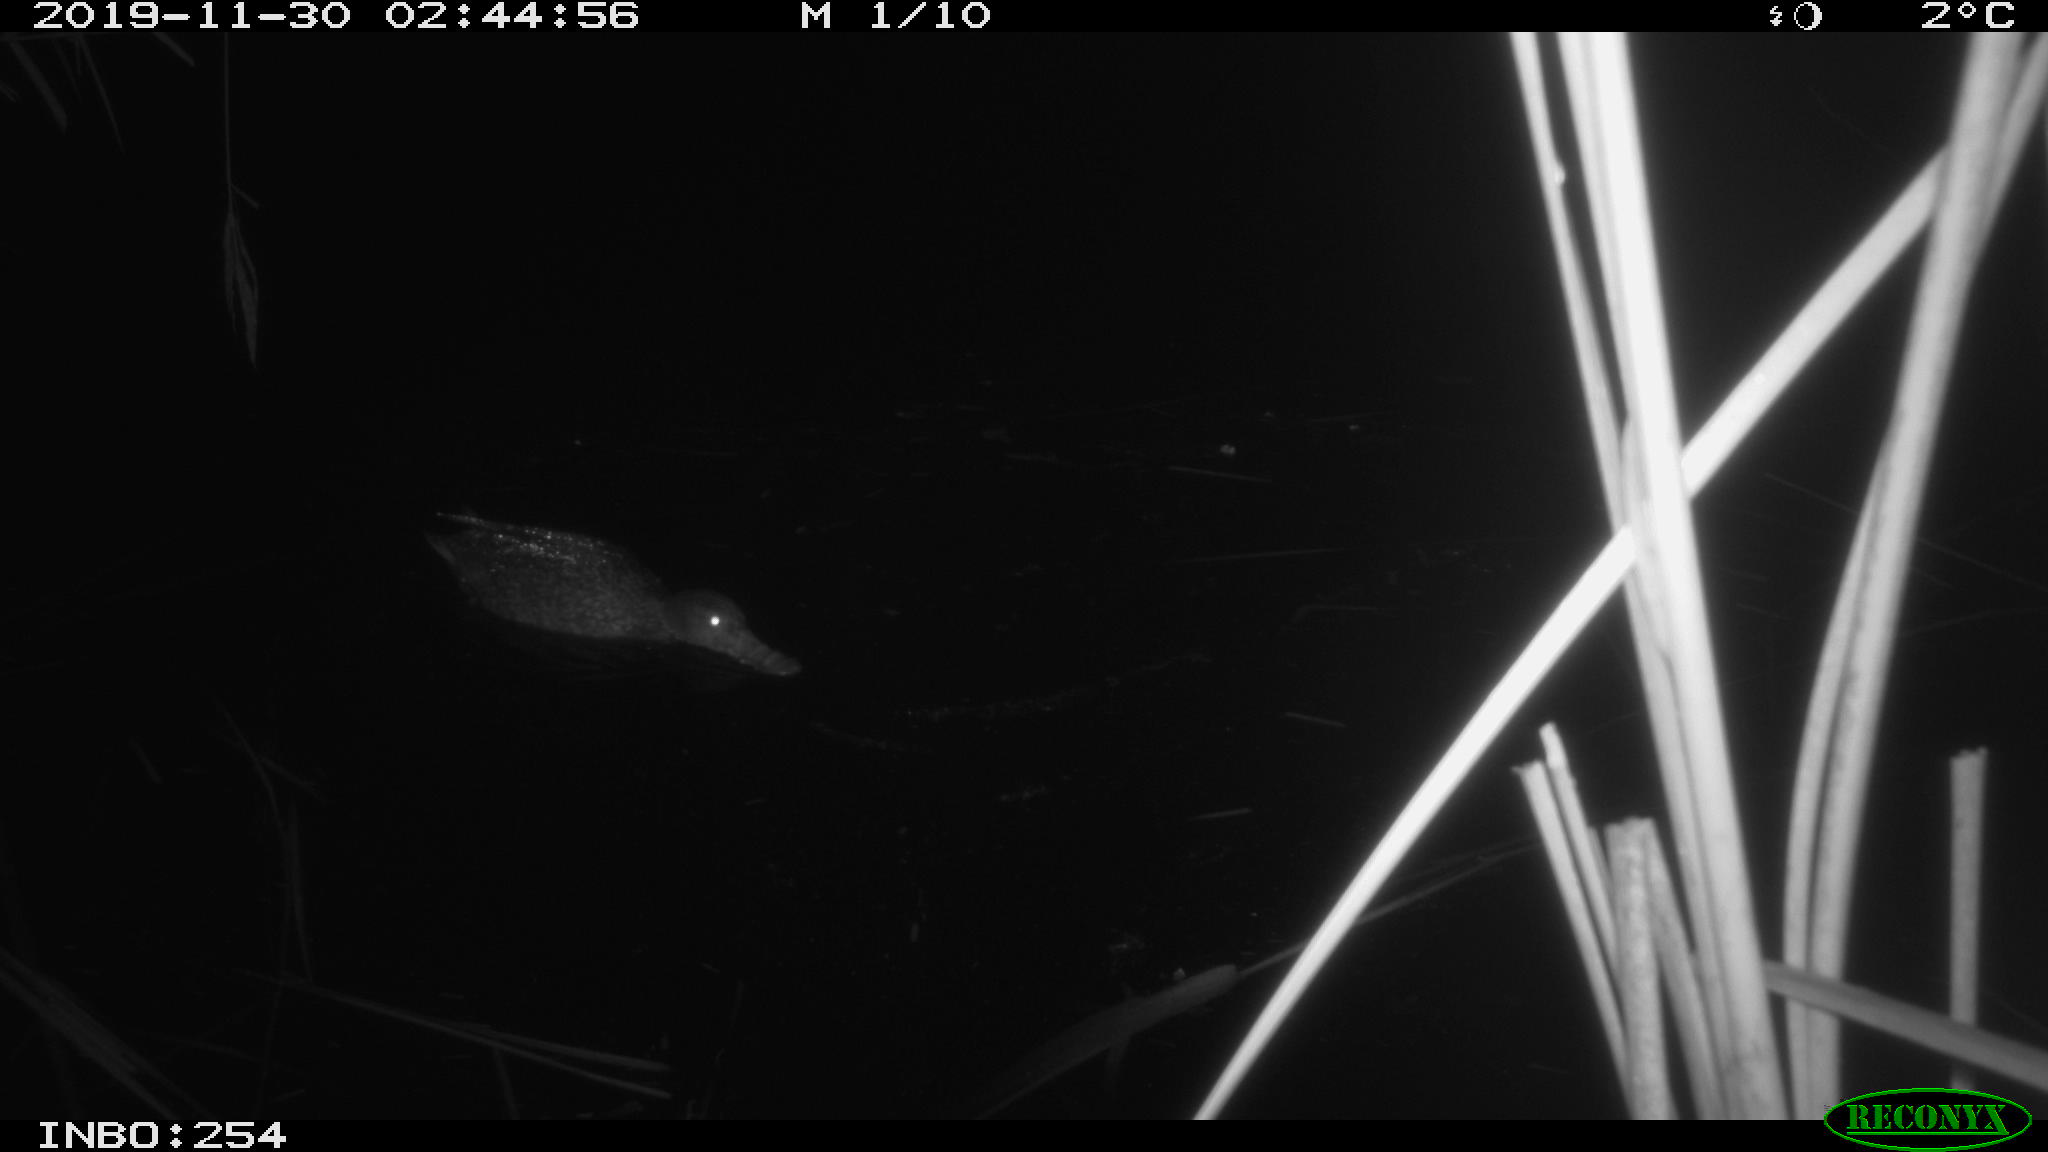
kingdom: Animalia
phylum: Chordata
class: Aves
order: Anseriformes
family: Anatidae
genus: Anas
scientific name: Anas platyrhynchos
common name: Mallard
